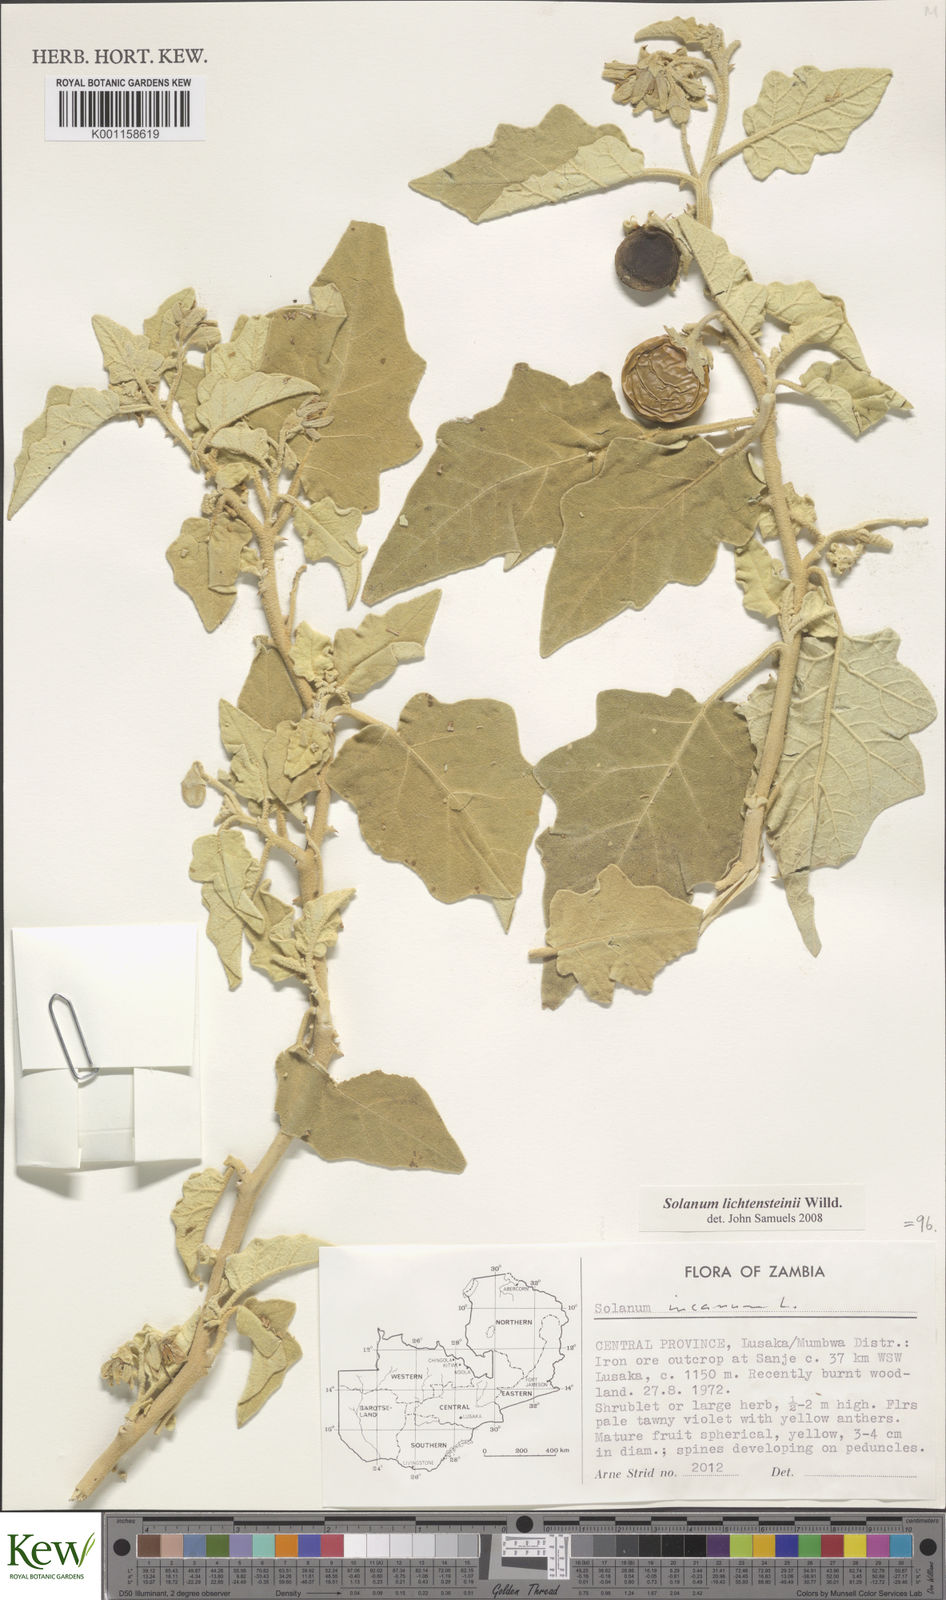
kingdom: Plantae
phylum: Tracheophyta
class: Magnoliopsida
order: Solanales
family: Solanaceae
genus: Solanum
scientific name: Solanum lichtensteinii
